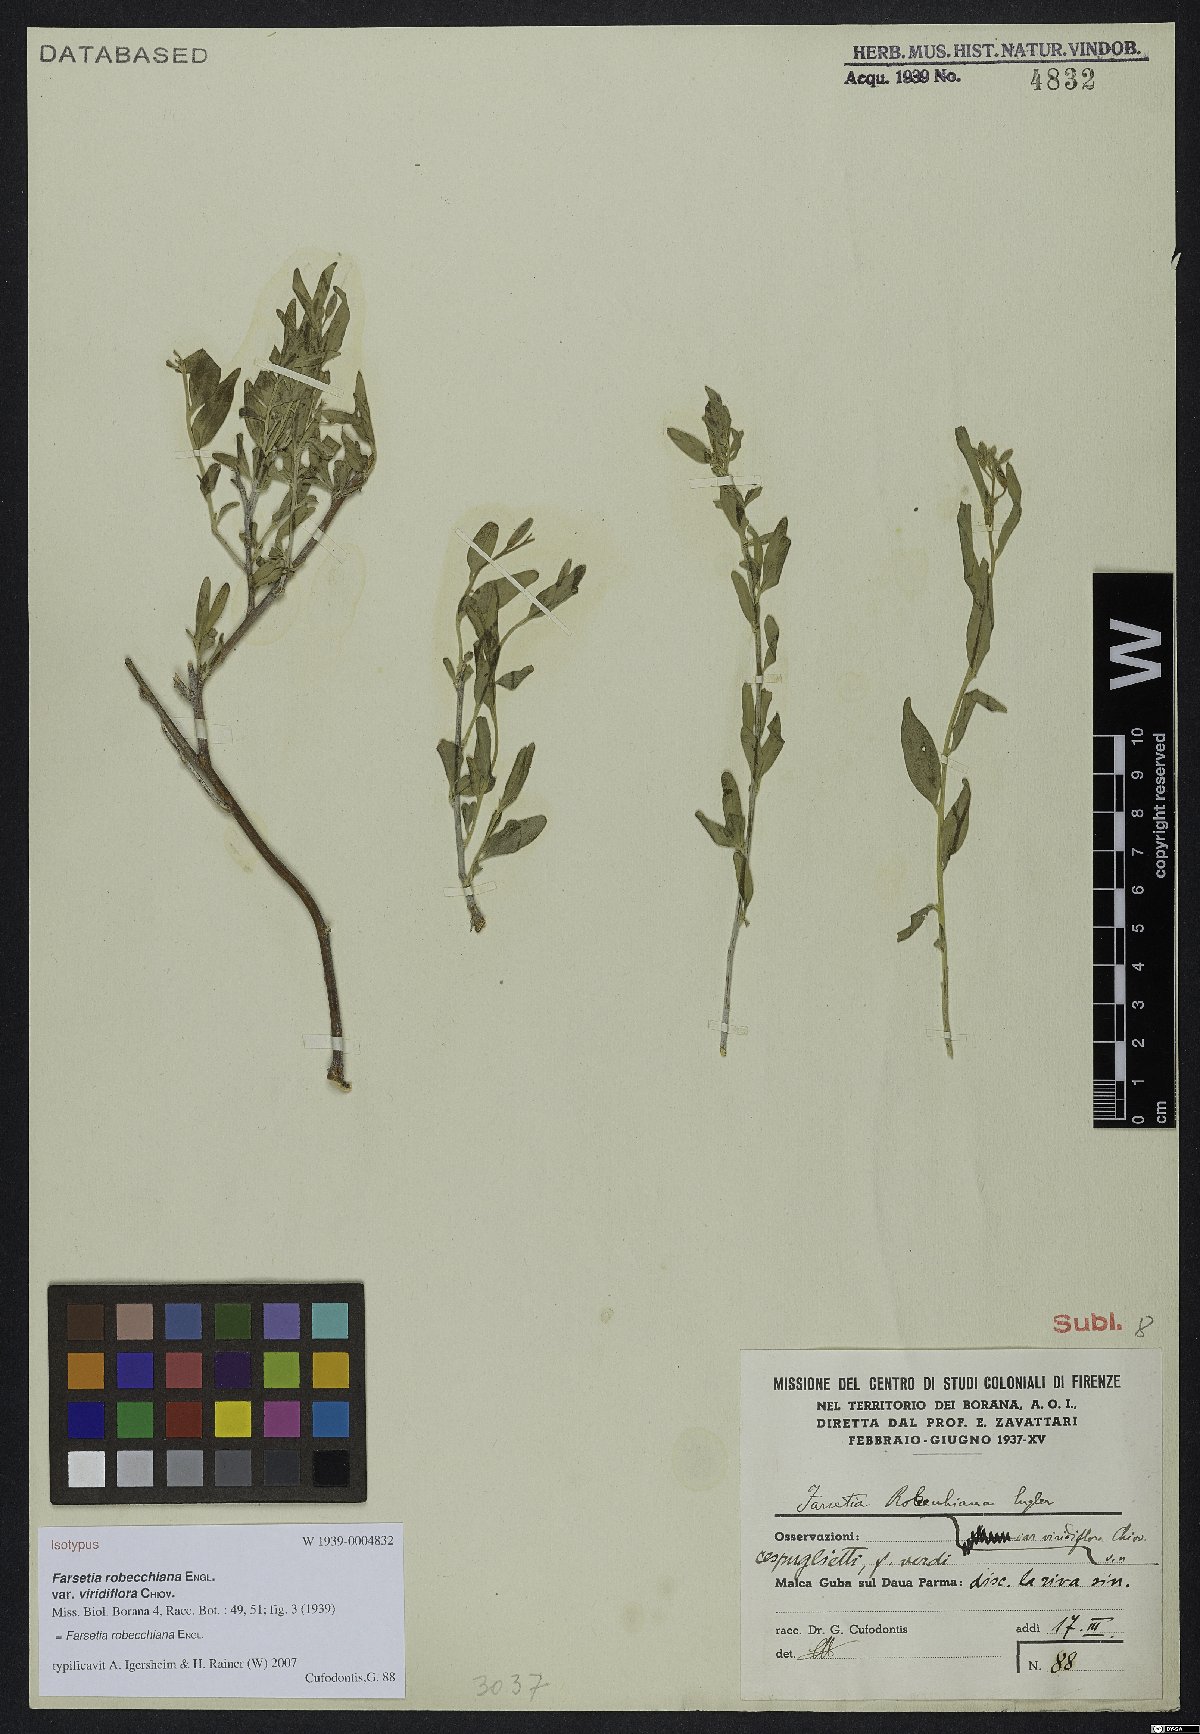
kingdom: Plantae
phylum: Tracheophyta
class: Magnoliopsida
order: Brassicales
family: Brassicaceae
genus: Farsetia
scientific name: Farsetia robecchiana
